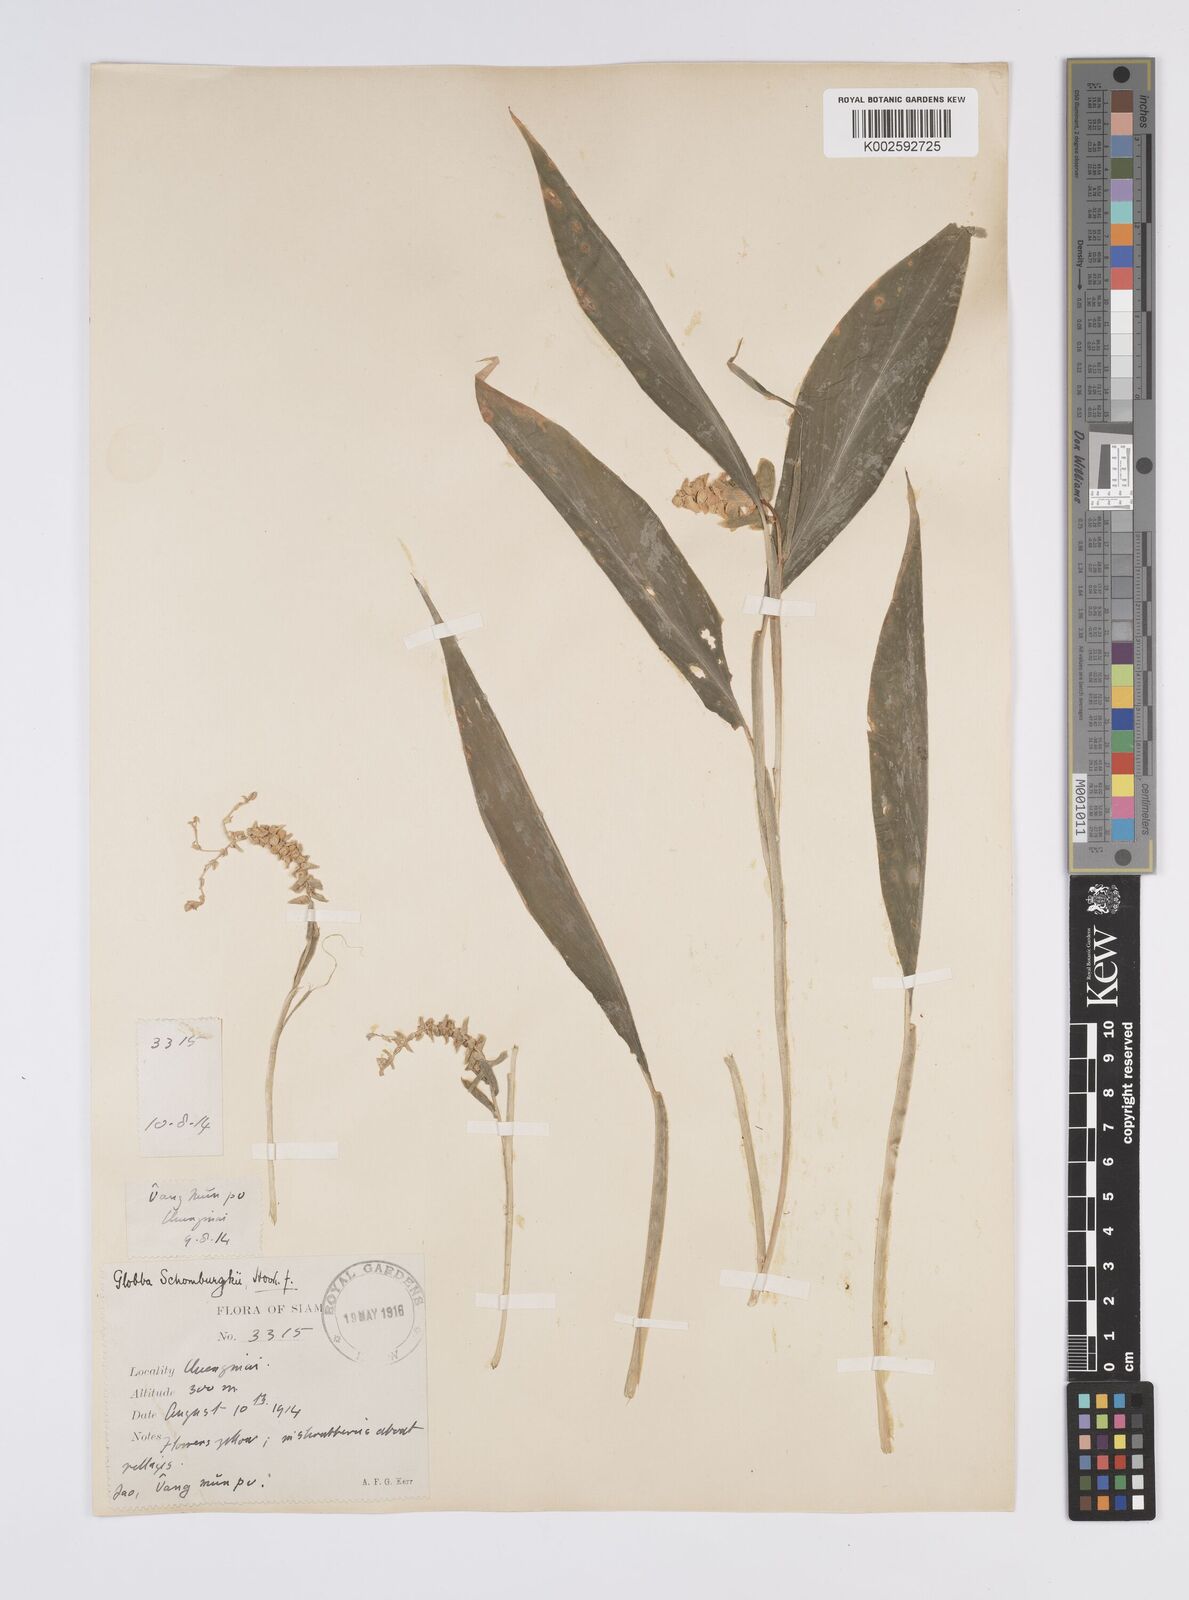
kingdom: Plantae
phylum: Tracheophyta
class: Liliopsida
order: Zingiberales
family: Zingiberaceae
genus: Globba
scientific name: Globba schomburgkii
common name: Dancing girl ginger
